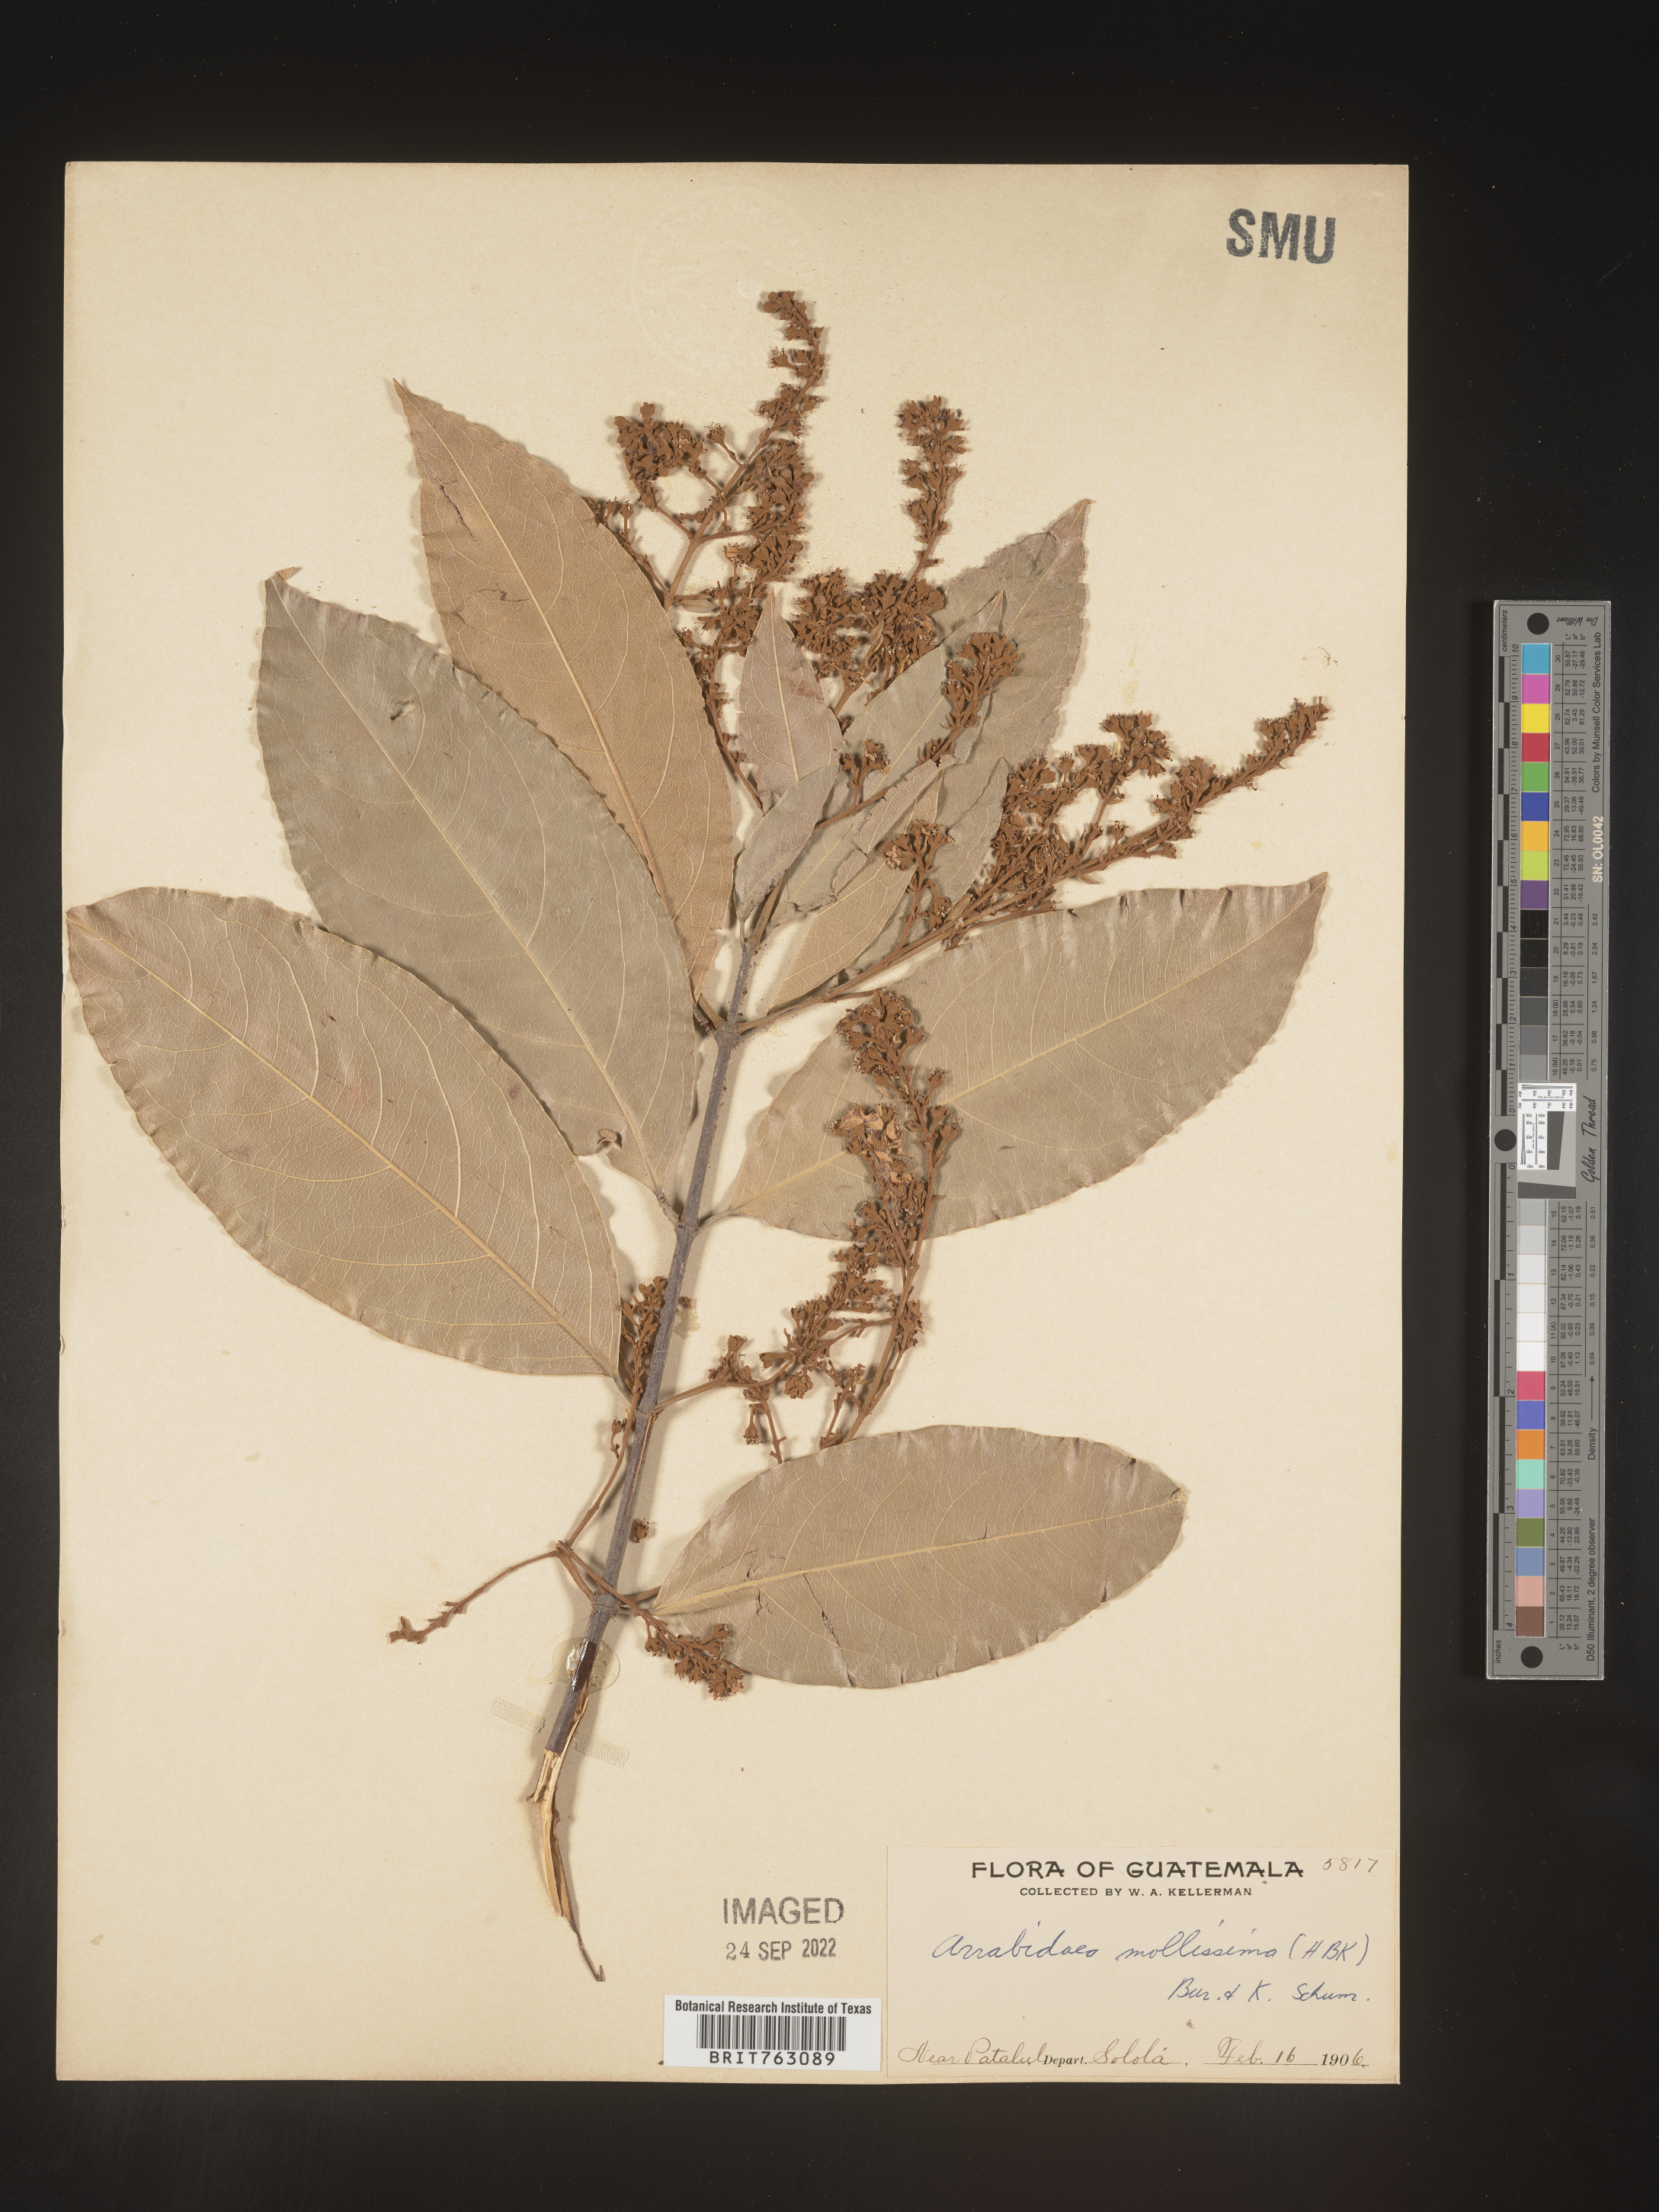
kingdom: Plantae
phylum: Tracheophyta
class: Magnoliopsida
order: Rosales
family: Rhamnaceae
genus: Arrabidaea
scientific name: Arrabidaea
